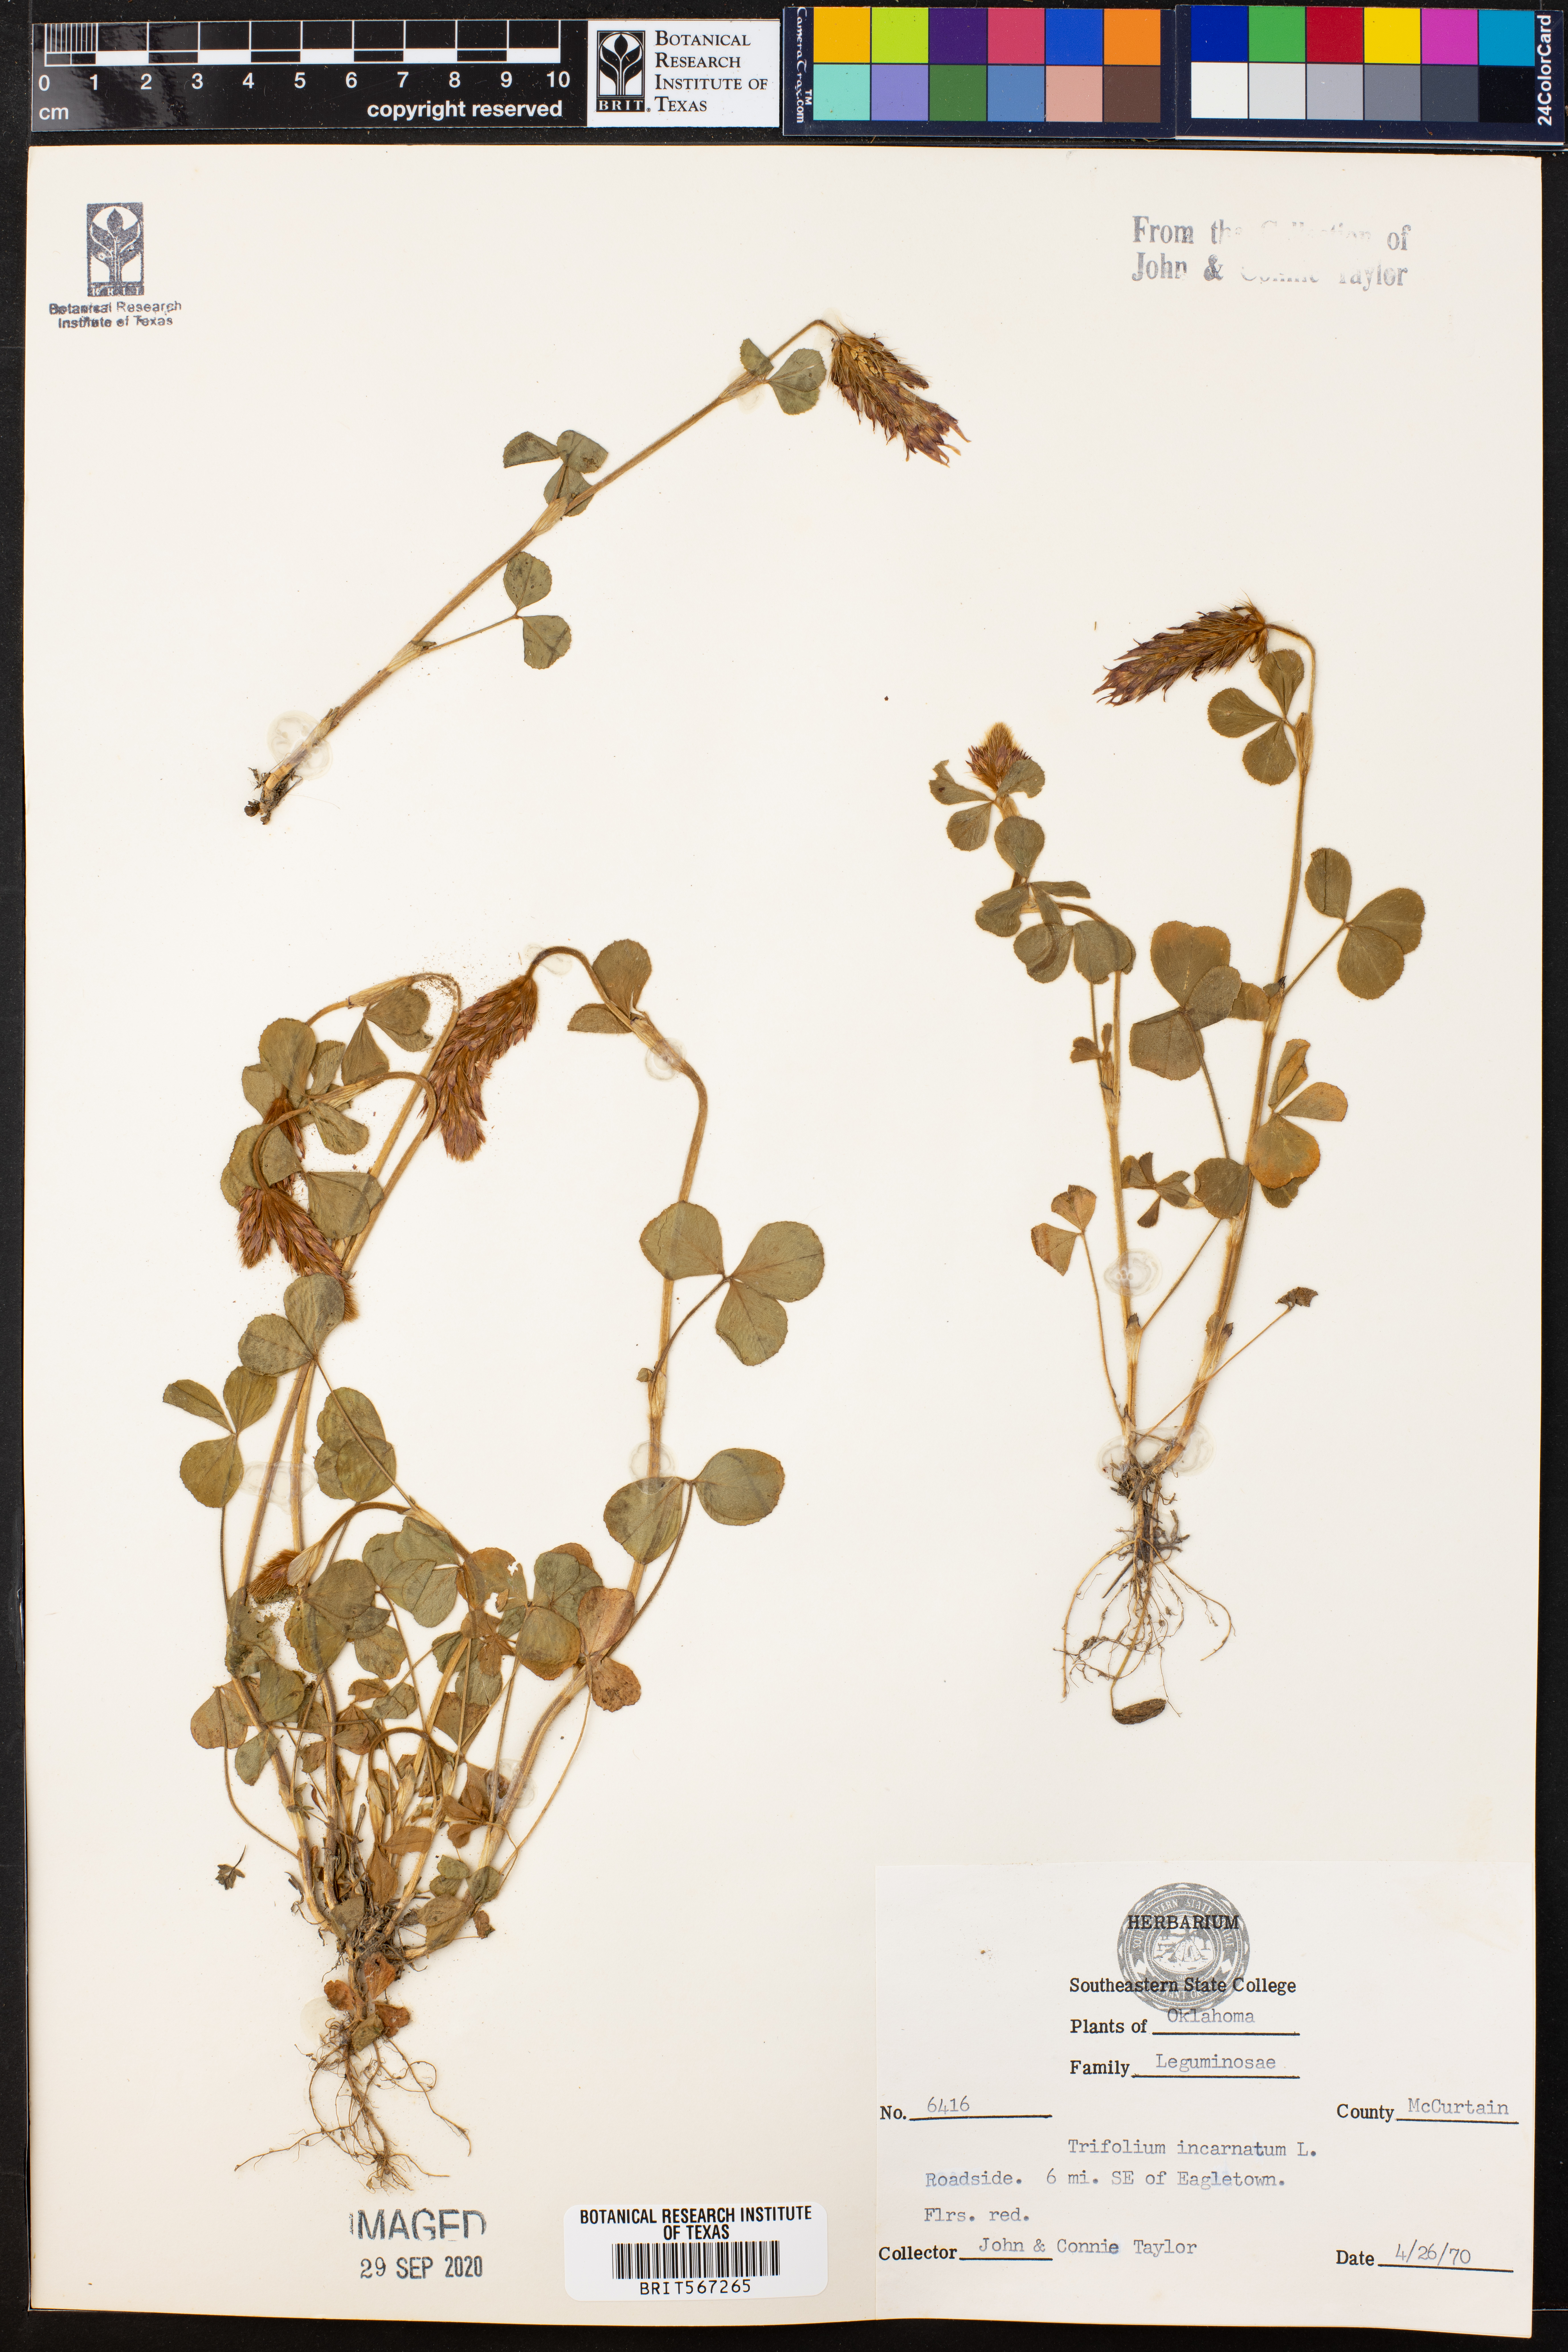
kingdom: Plantae
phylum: Tracheophyta
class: Magnoliopsida
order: Fabales
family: Fabaceae
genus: Trifolium
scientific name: Trifolium incarnatum
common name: Crimson clover
